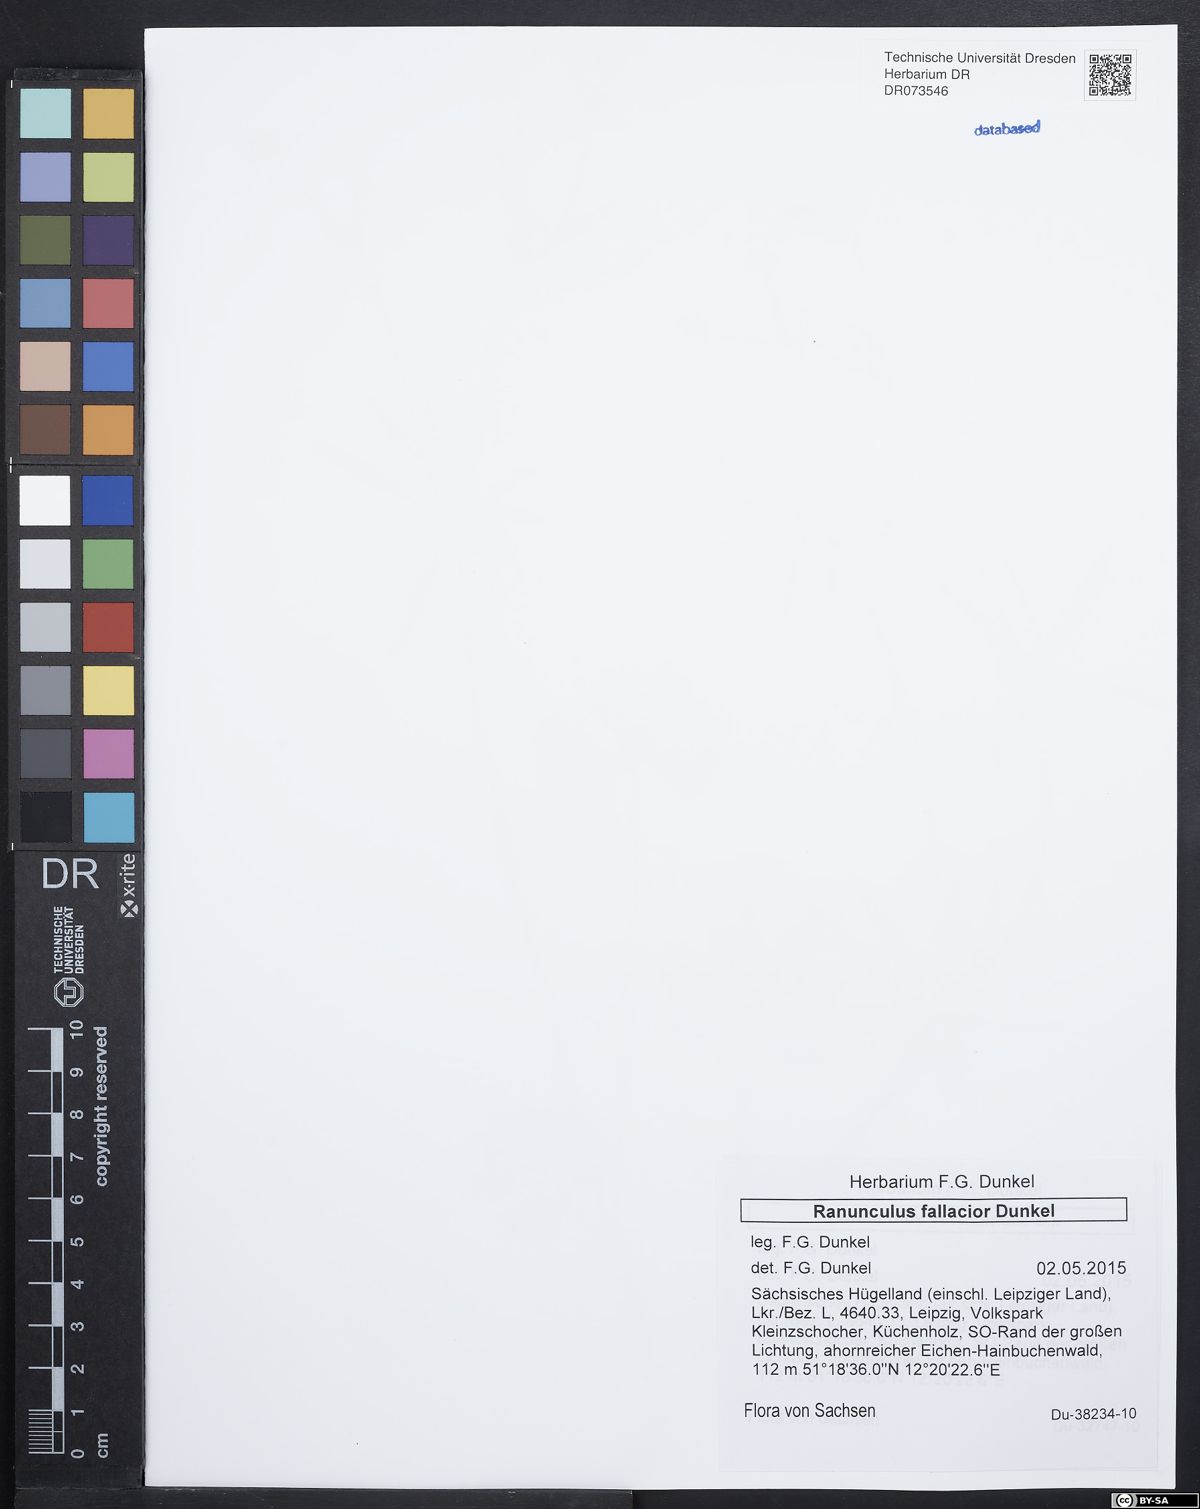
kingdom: Plantae
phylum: Tracheophyta
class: Magnoliopsida
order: Ranunculales
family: Ranunculaceae
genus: Ranunculus
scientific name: Ranunculus fallacior
